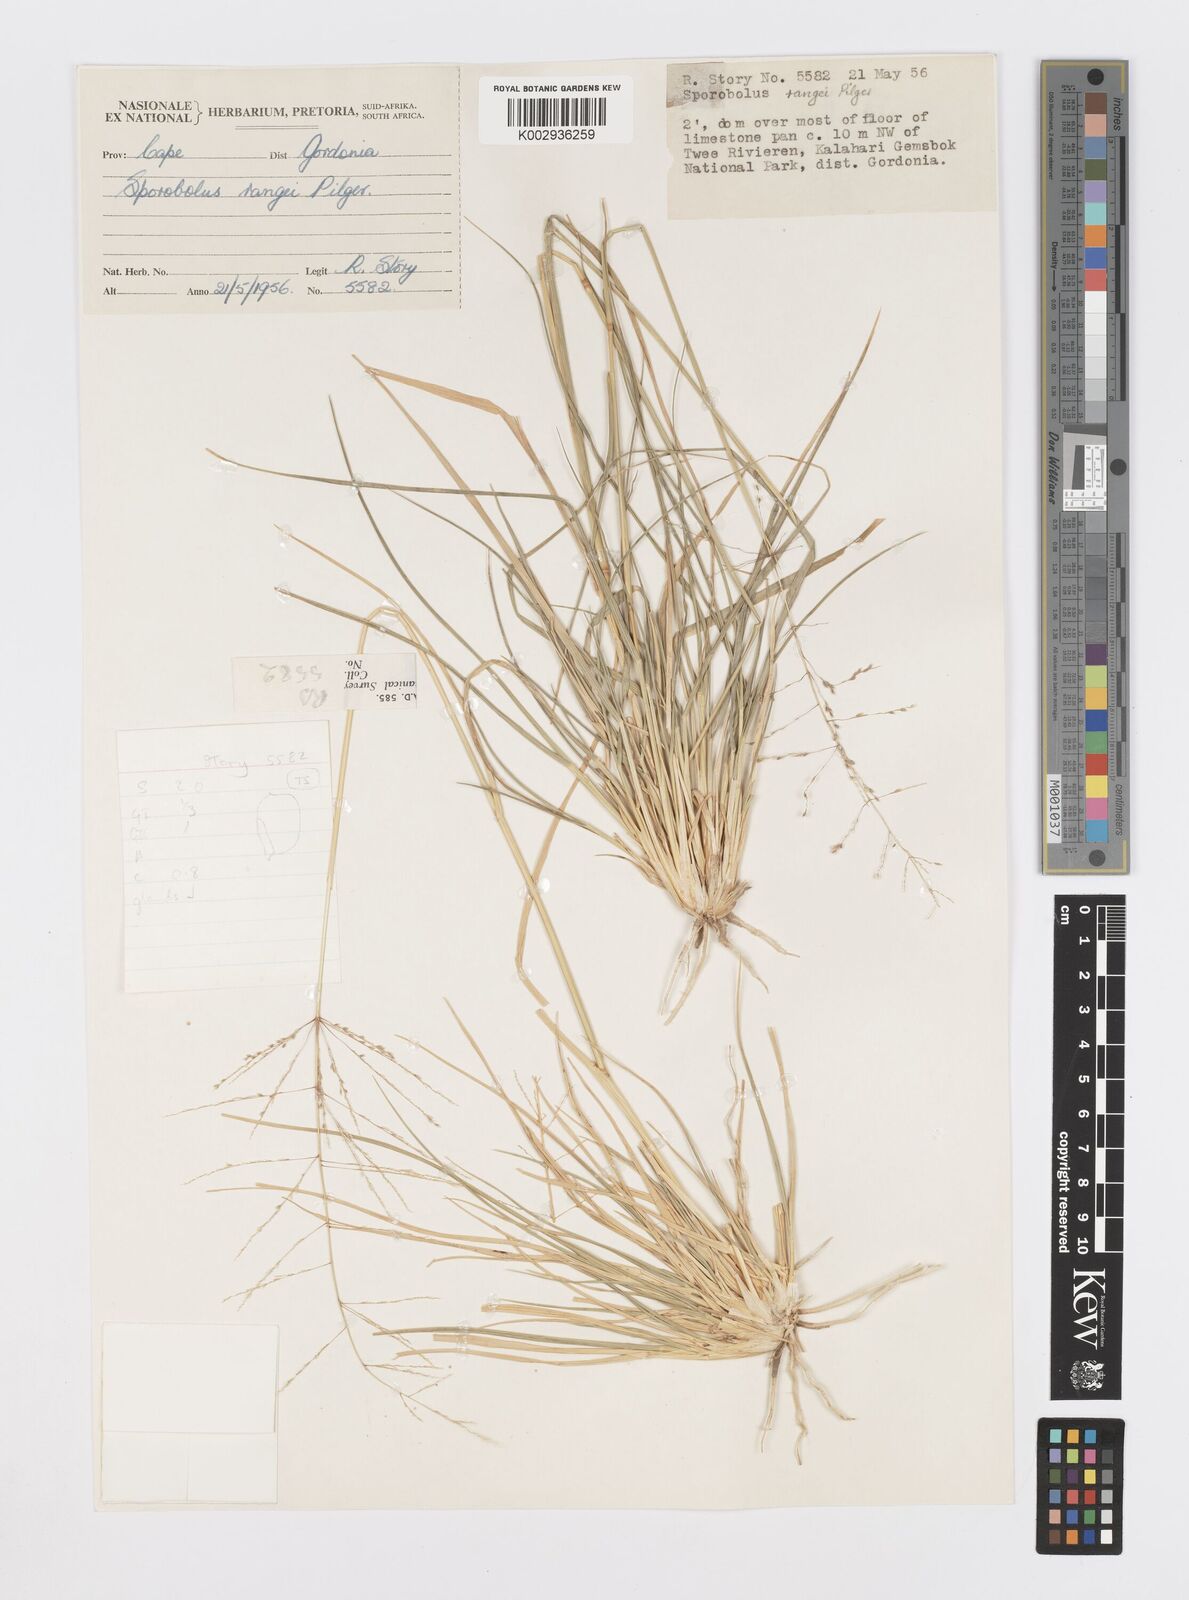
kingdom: Plantae
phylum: Tracheophyta
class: Liliopsida
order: Poales
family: Poaceae
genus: Sporobolus
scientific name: Sporobolus ioclados
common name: Pan dropseed
